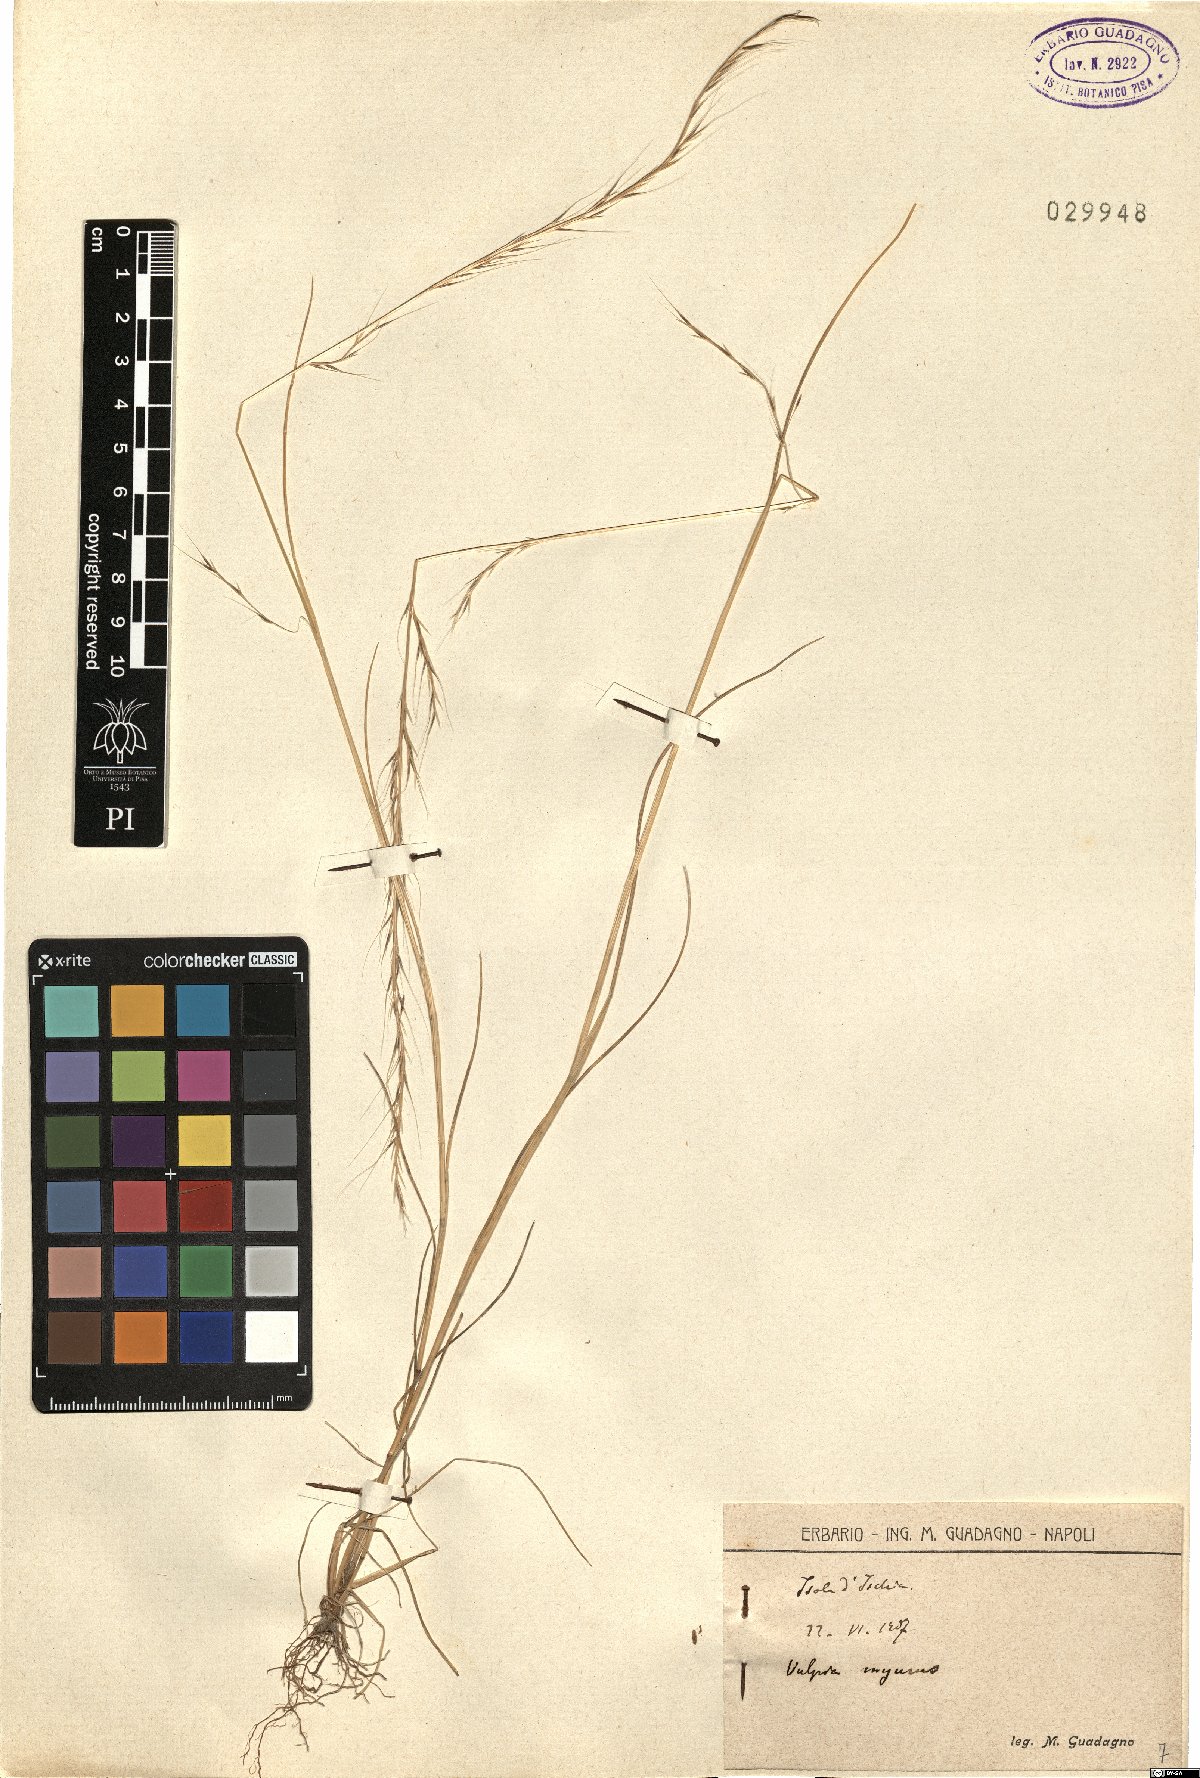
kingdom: Plantae
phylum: Tracheophyta
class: Liliopsida
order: Poales
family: Poaceae
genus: Festuca
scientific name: Festuca myuros
